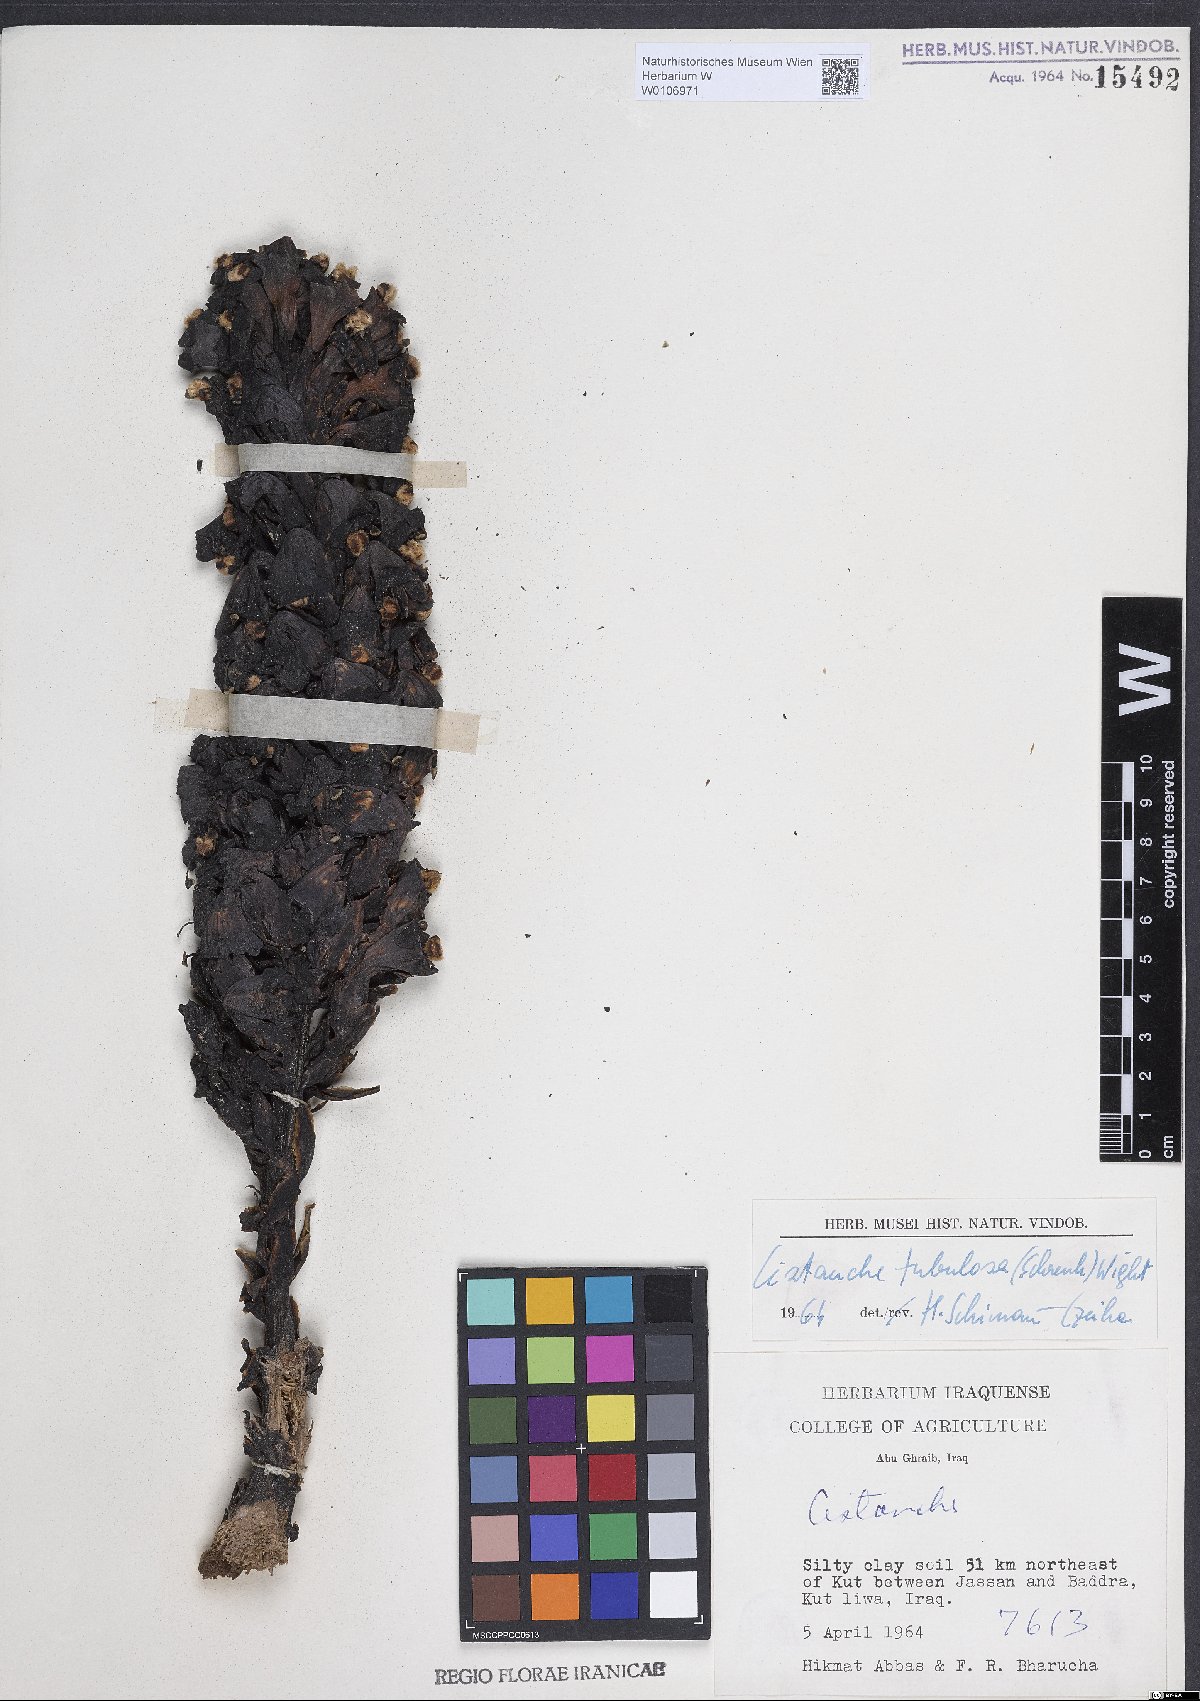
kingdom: Plantae
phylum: Tracheophyta
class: Magnoliopsida
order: Lamiales
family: Orobanchaceae
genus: Cistanche
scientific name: Cistanche tubulosa
